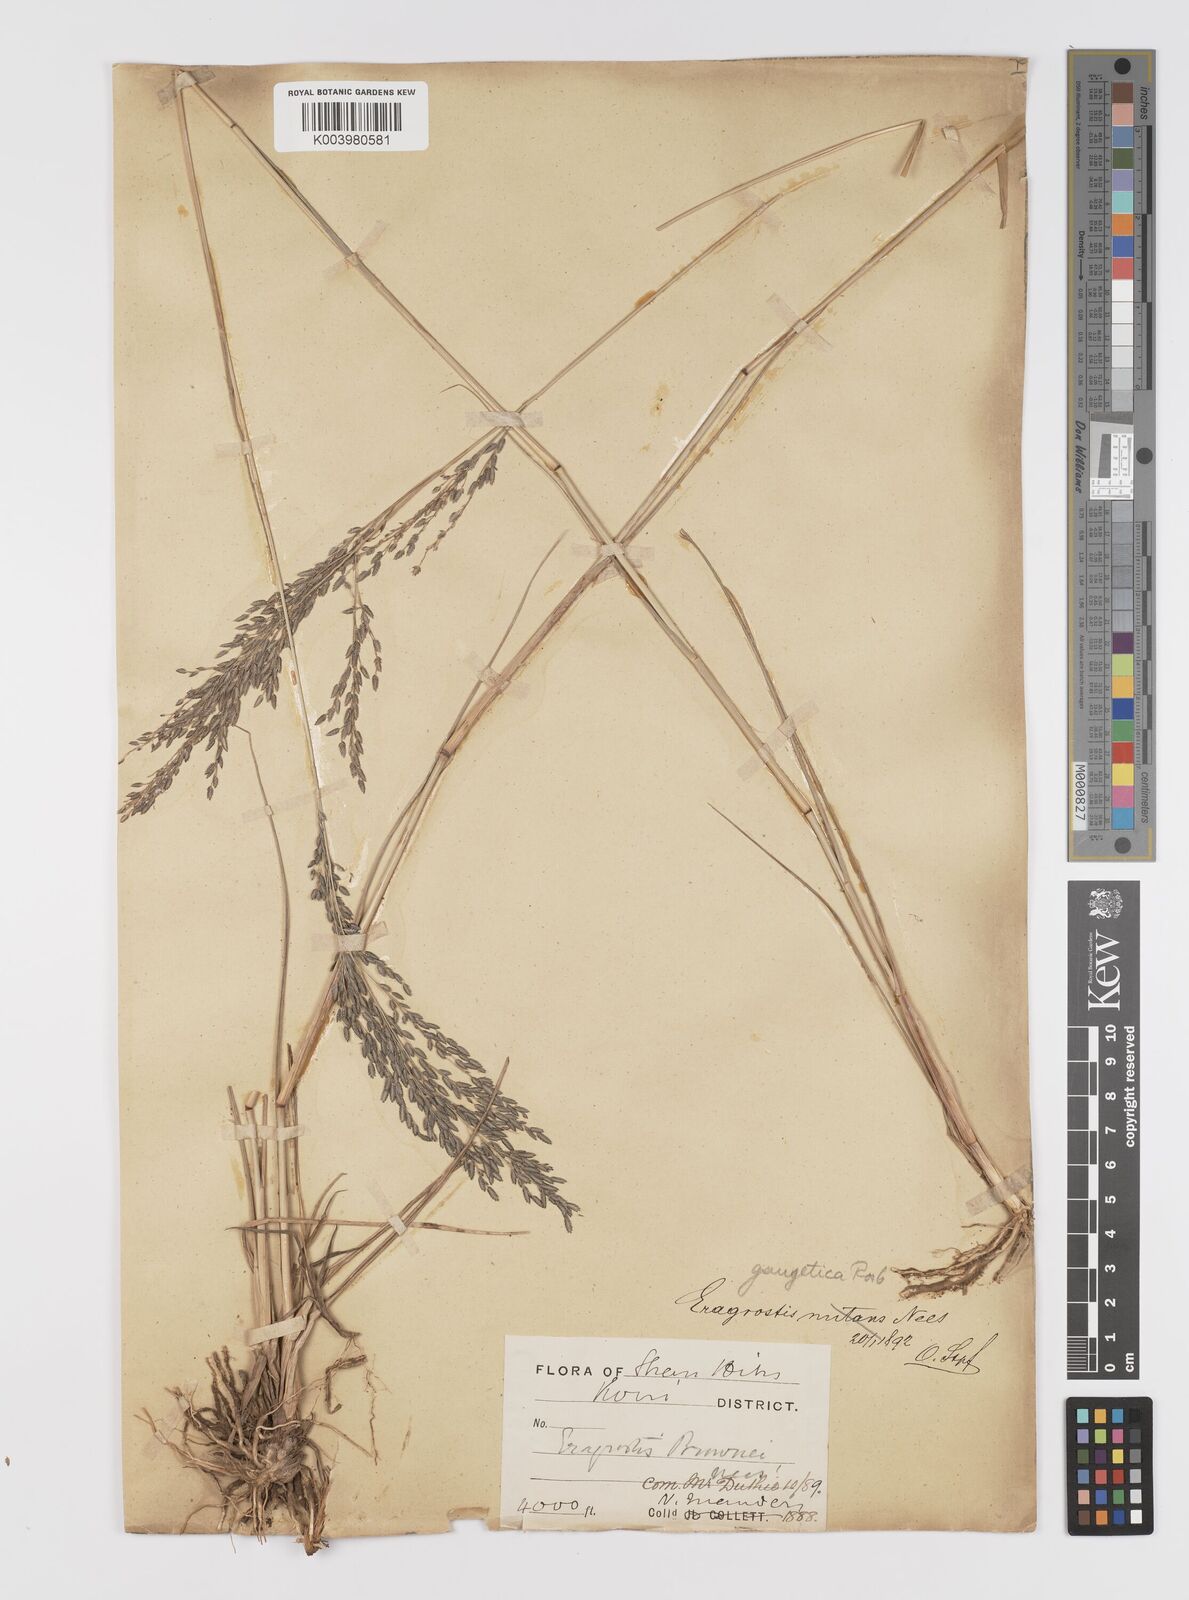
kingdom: Plantae
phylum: Tracheophyta
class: Liliopsida
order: Poales
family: Poaceae
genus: Eragrostis
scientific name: Eragrostis atrovirens
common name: Thalia lovegrass
